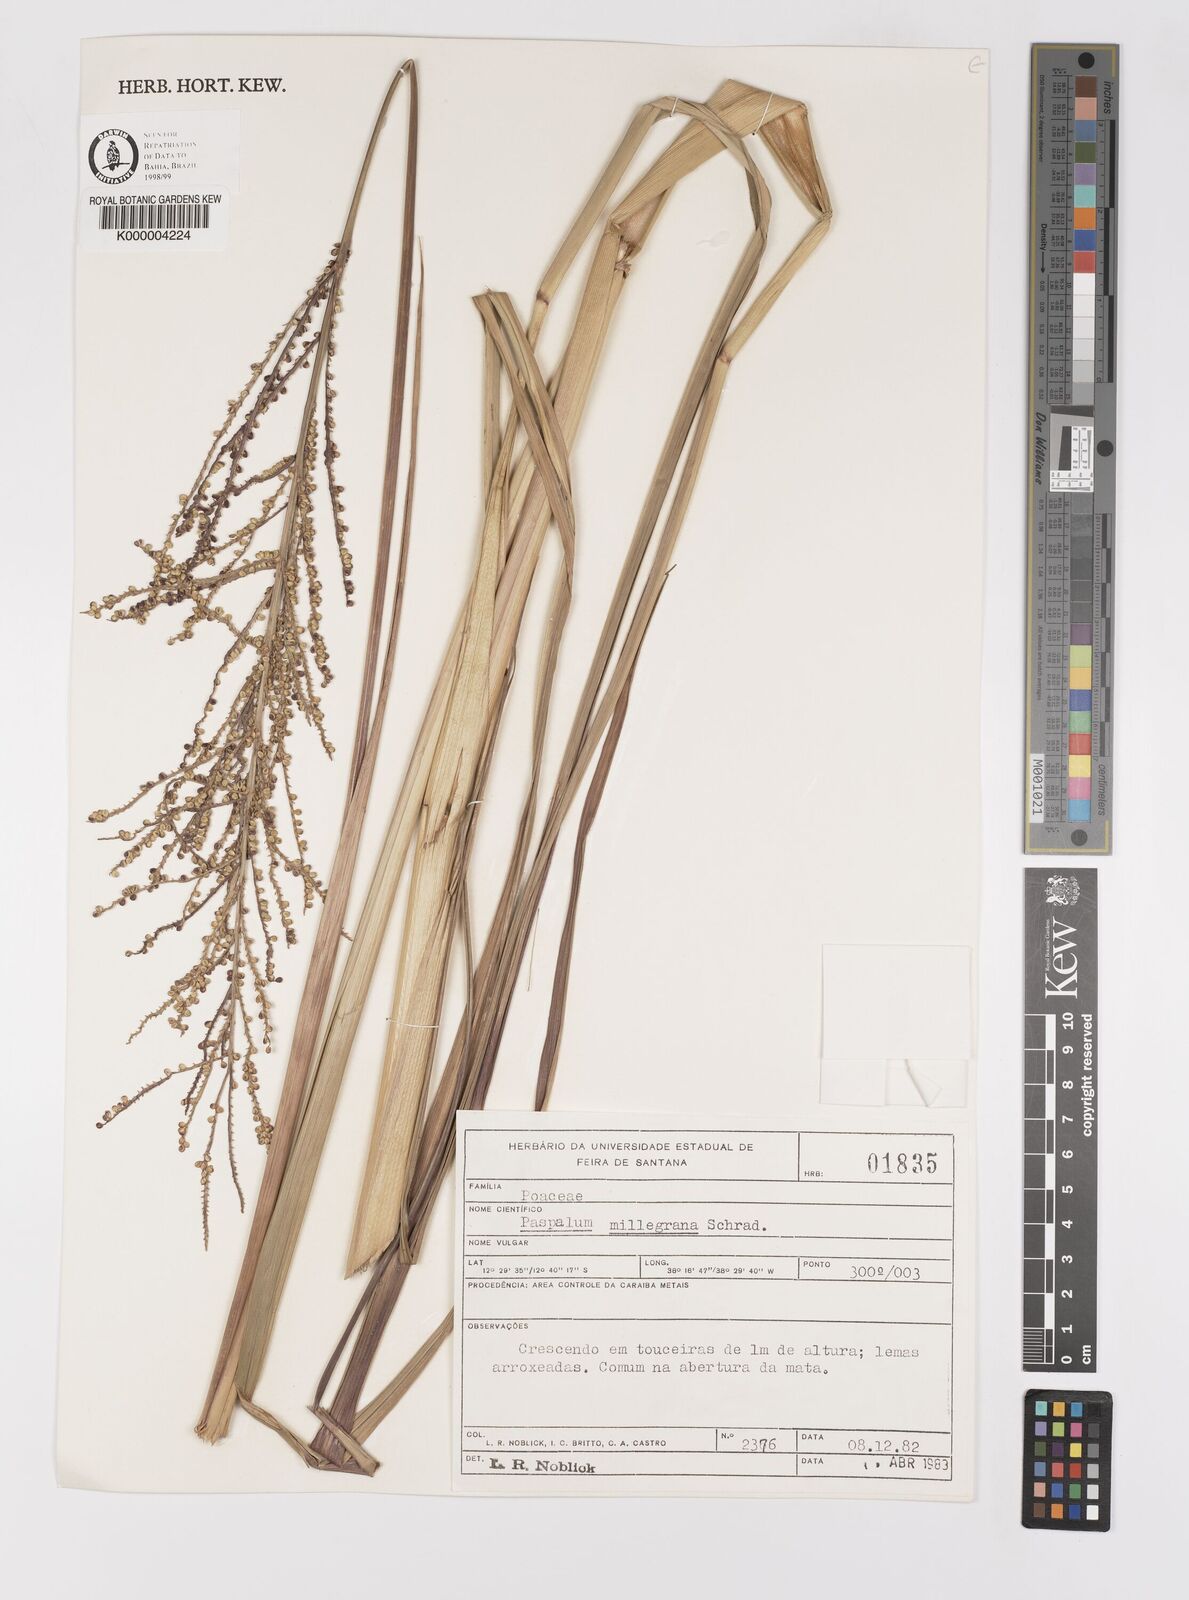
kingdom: Plantae
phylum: Tracheophyta
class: Liliopsida
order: Poales
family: Poaceae
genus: Paspalum
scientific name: Paspalum millegranum
